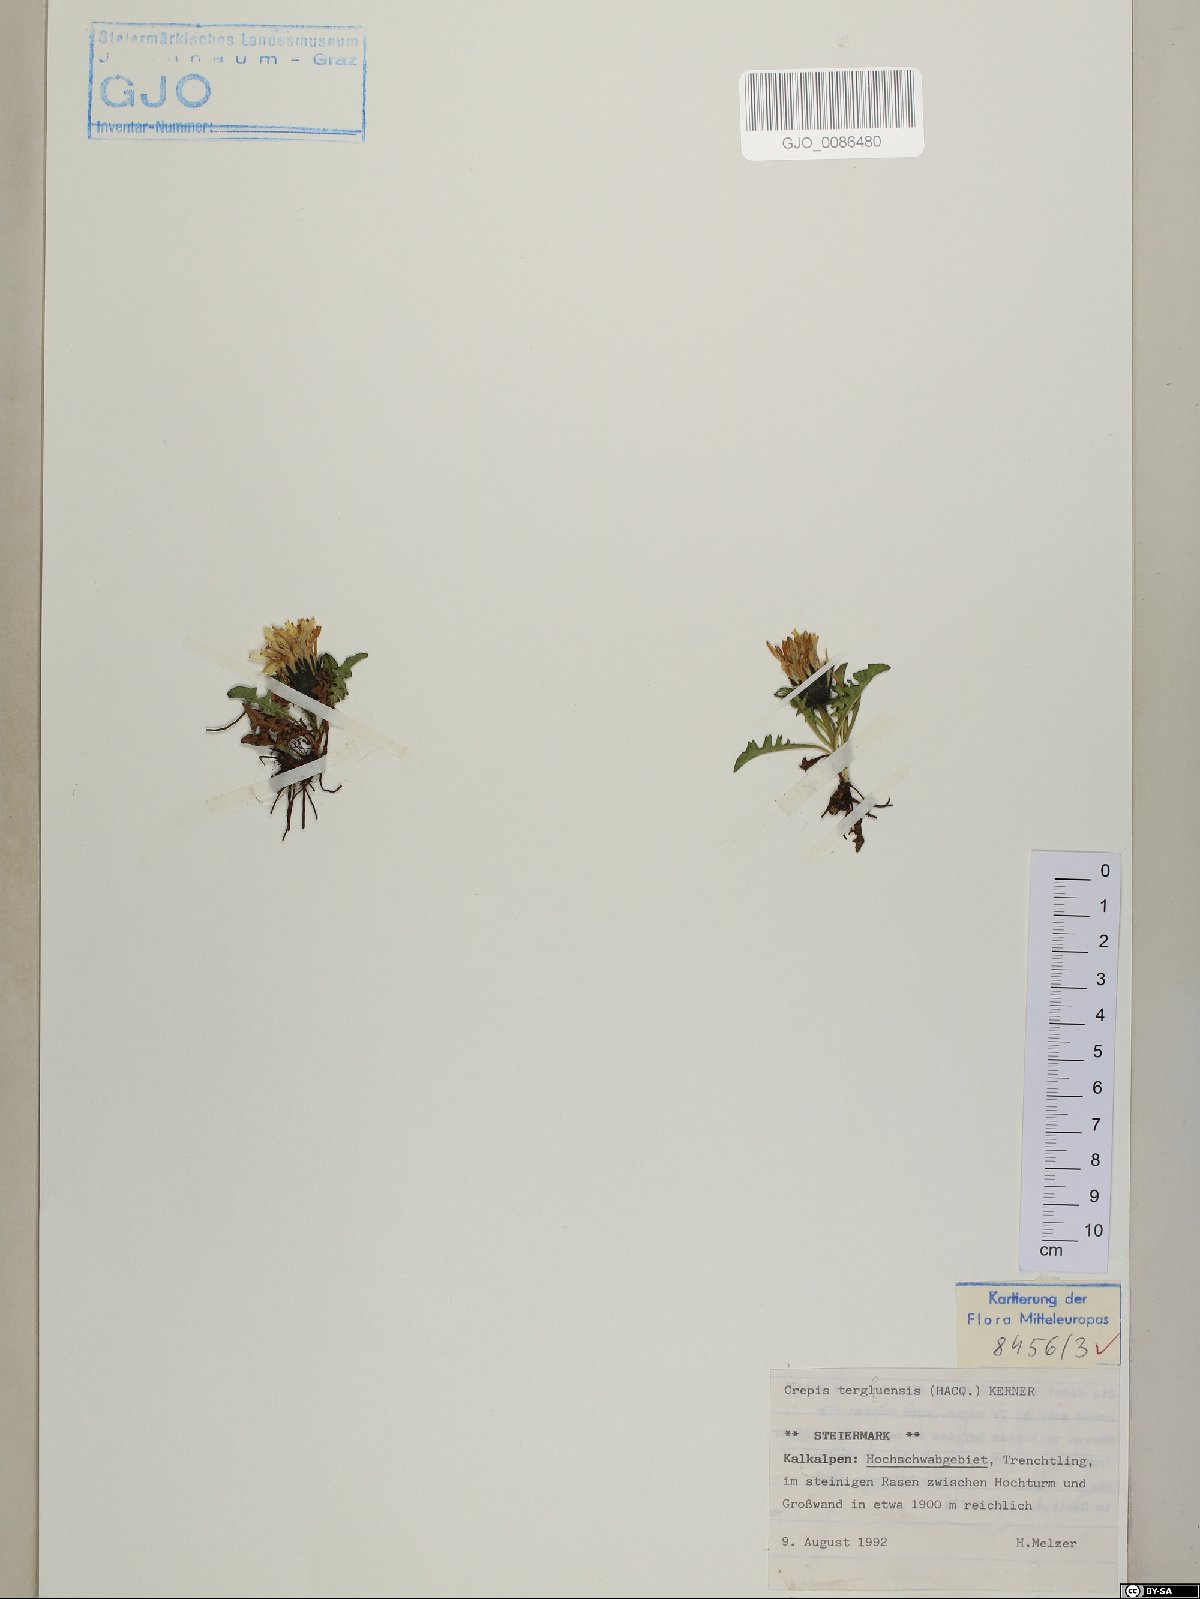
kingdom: Plantae
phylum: Tracheophyta
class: Magnoliopsida
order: Asterales
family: Asteraceae
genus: Crepis
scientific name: Crepis terglouensis
